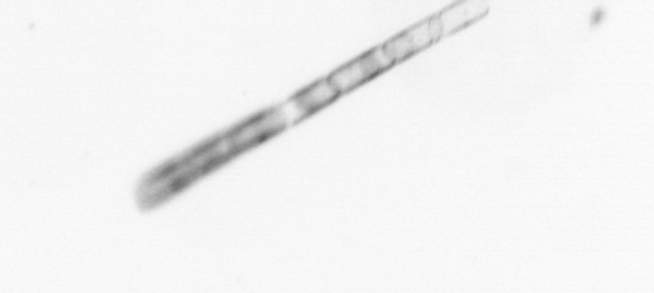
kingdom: Chromista
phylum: Ochrophyta
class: Bacillariophyceae
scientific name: Bacillariophyceae
